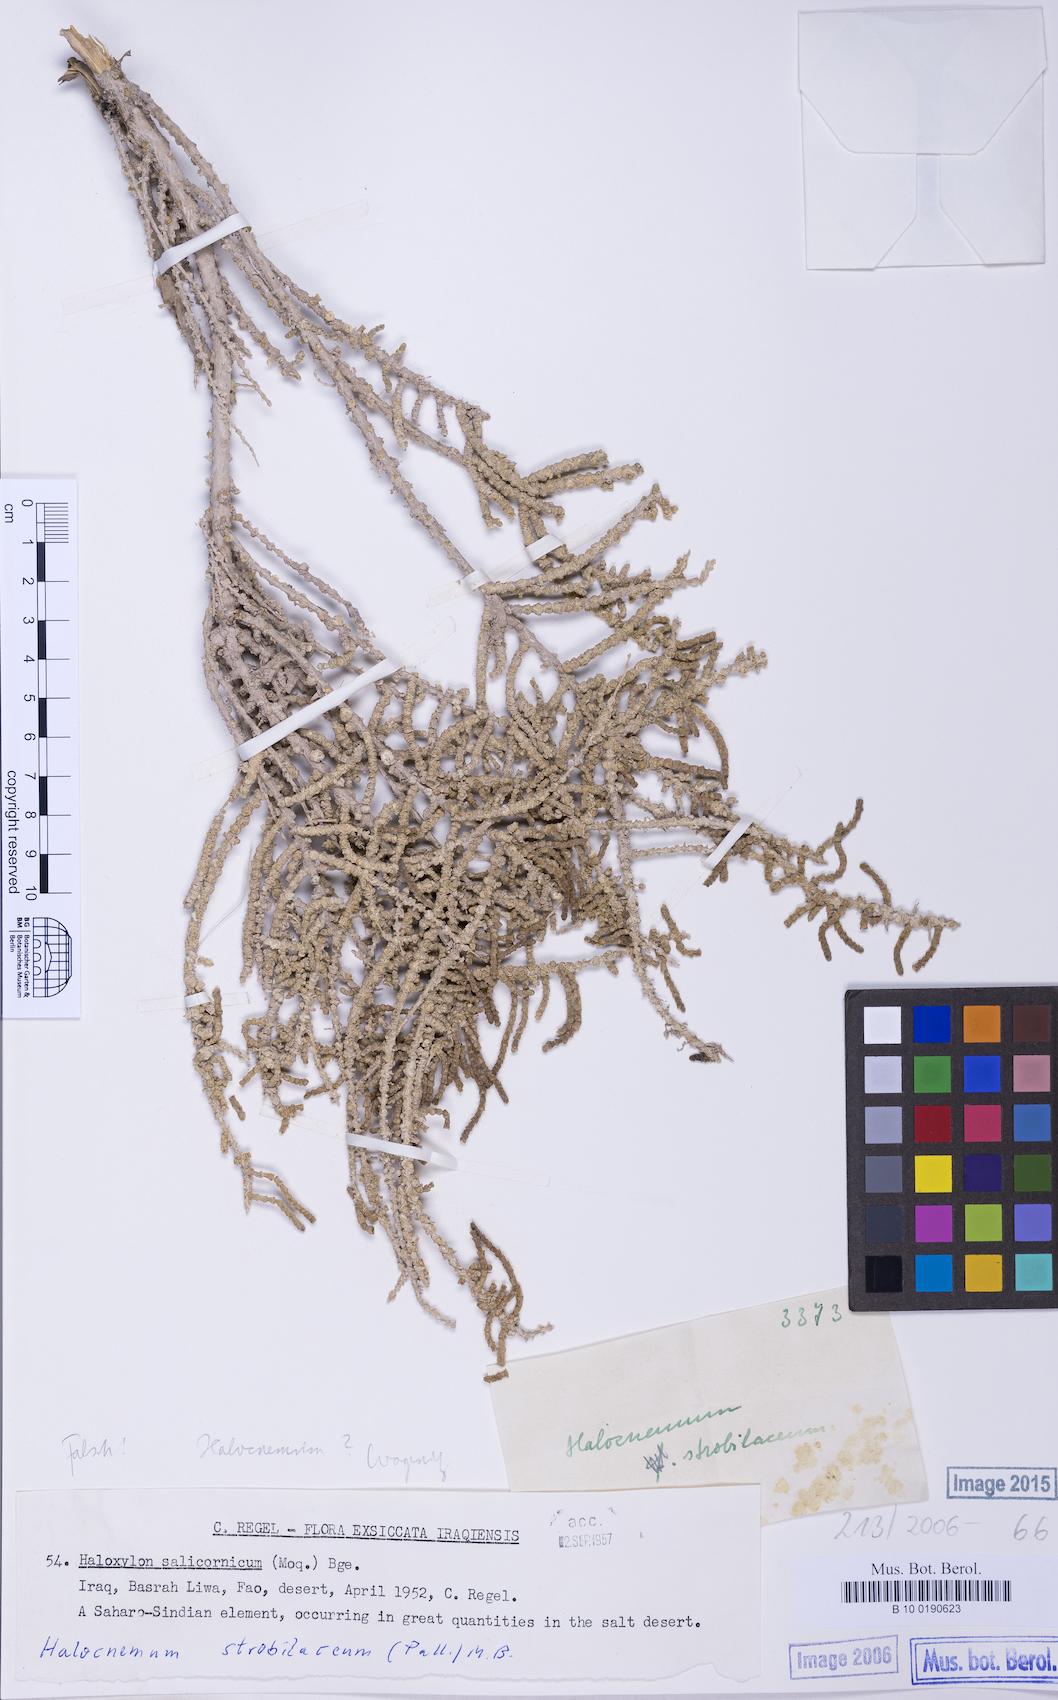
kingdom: Plantae
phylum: Tracheophyta
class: Magnoliopsida
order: Caryophyllales
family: Amaranthaceae
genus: Halocnemum
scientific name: Halocnemum strobilaceum
